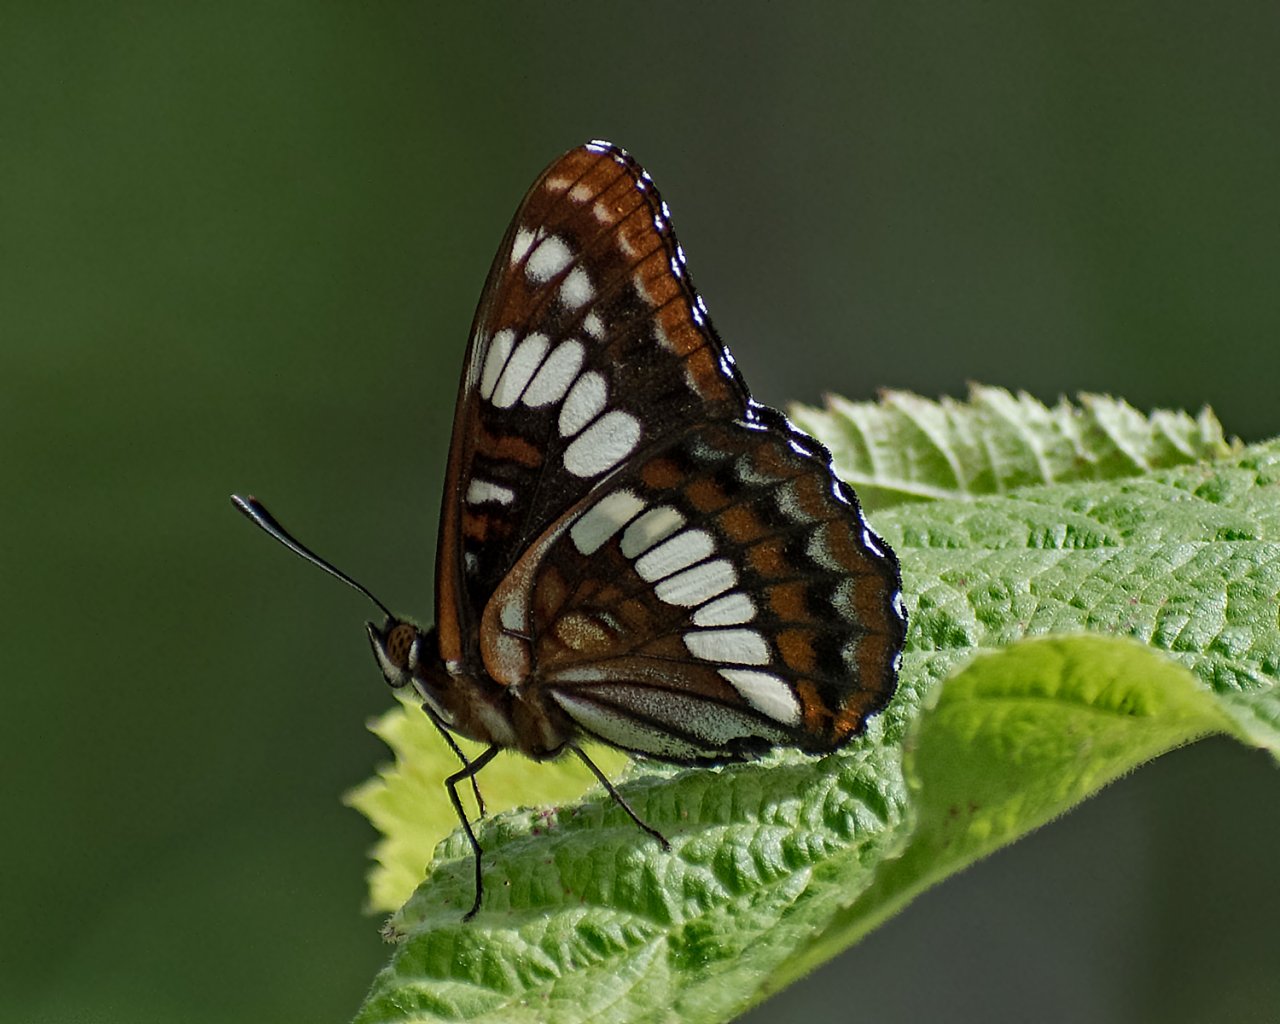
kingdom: Animalia
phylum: Arthropoda
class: Insecta
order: Lepidoptera
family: Nymphalidae
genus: Limenitis
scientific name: Limenitis lorquini
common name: Lorquin's Admiral
